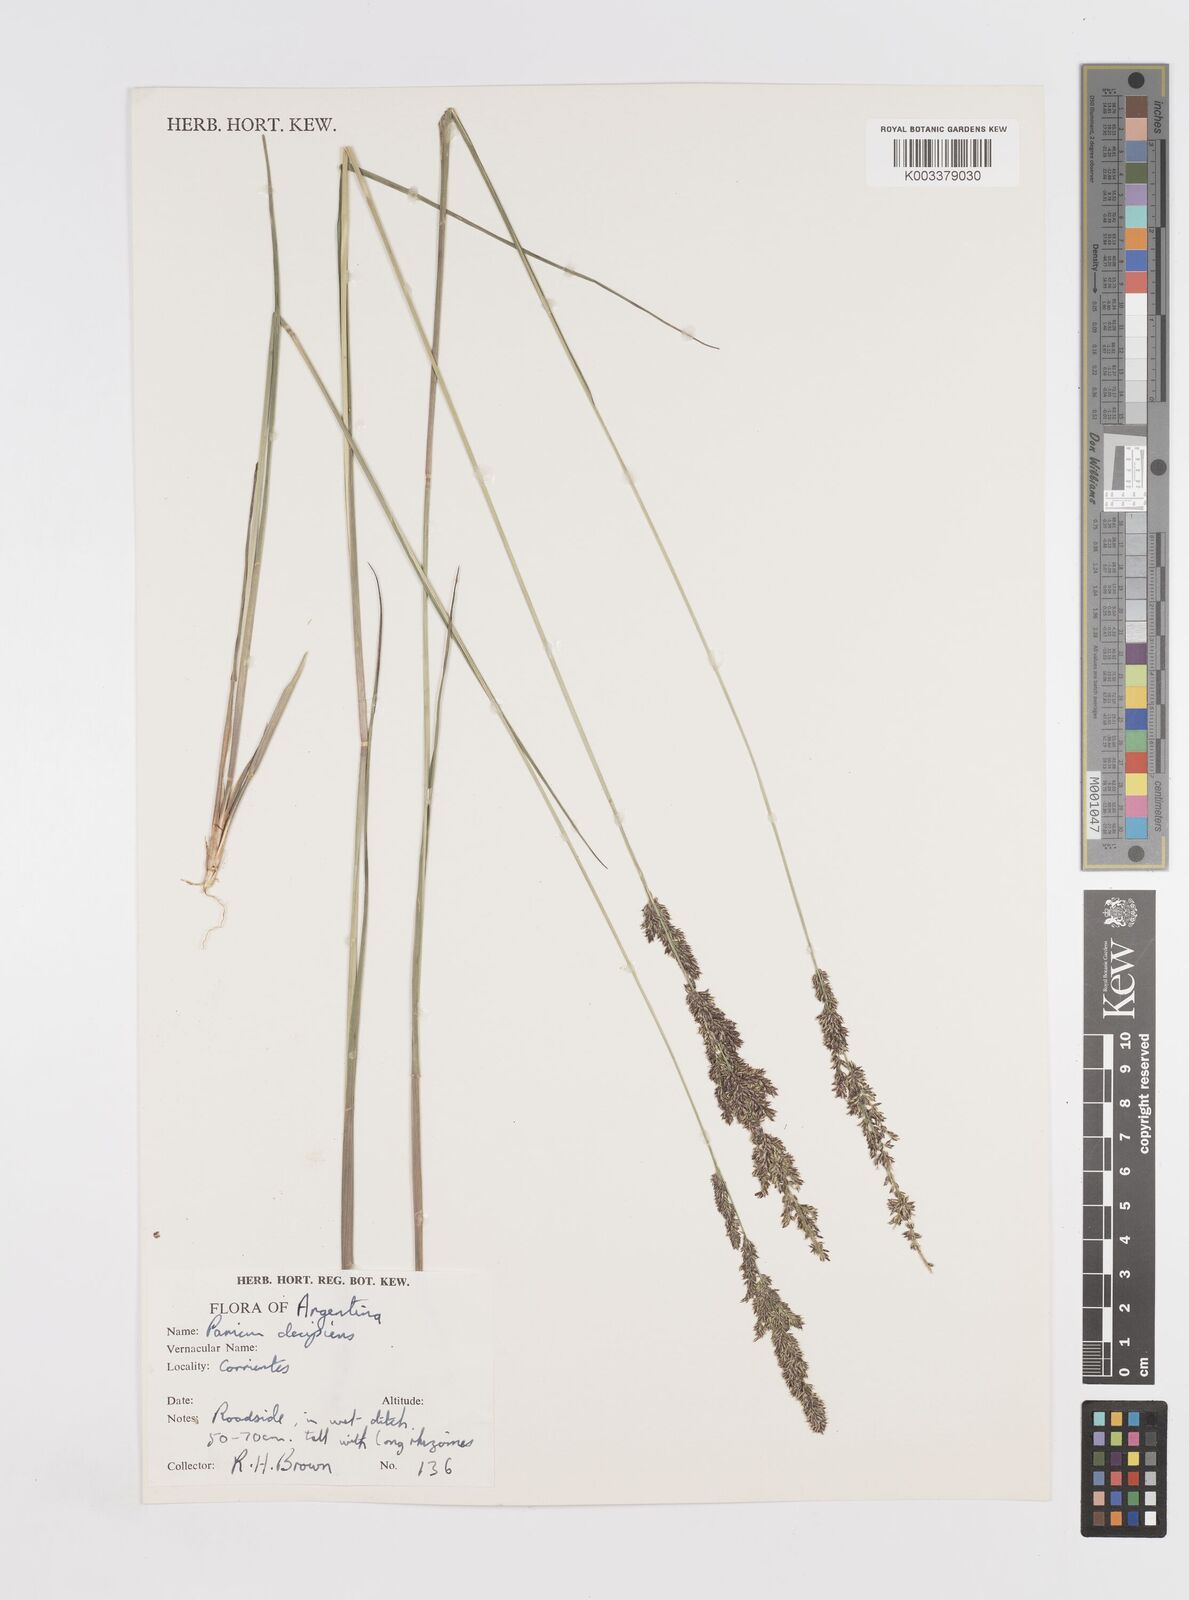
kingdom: Plantae
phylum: Tracheophyta
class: Liliopsida
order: Poales
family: Poaceae
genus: Steinchisma
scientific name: Steinchisma decipiens
